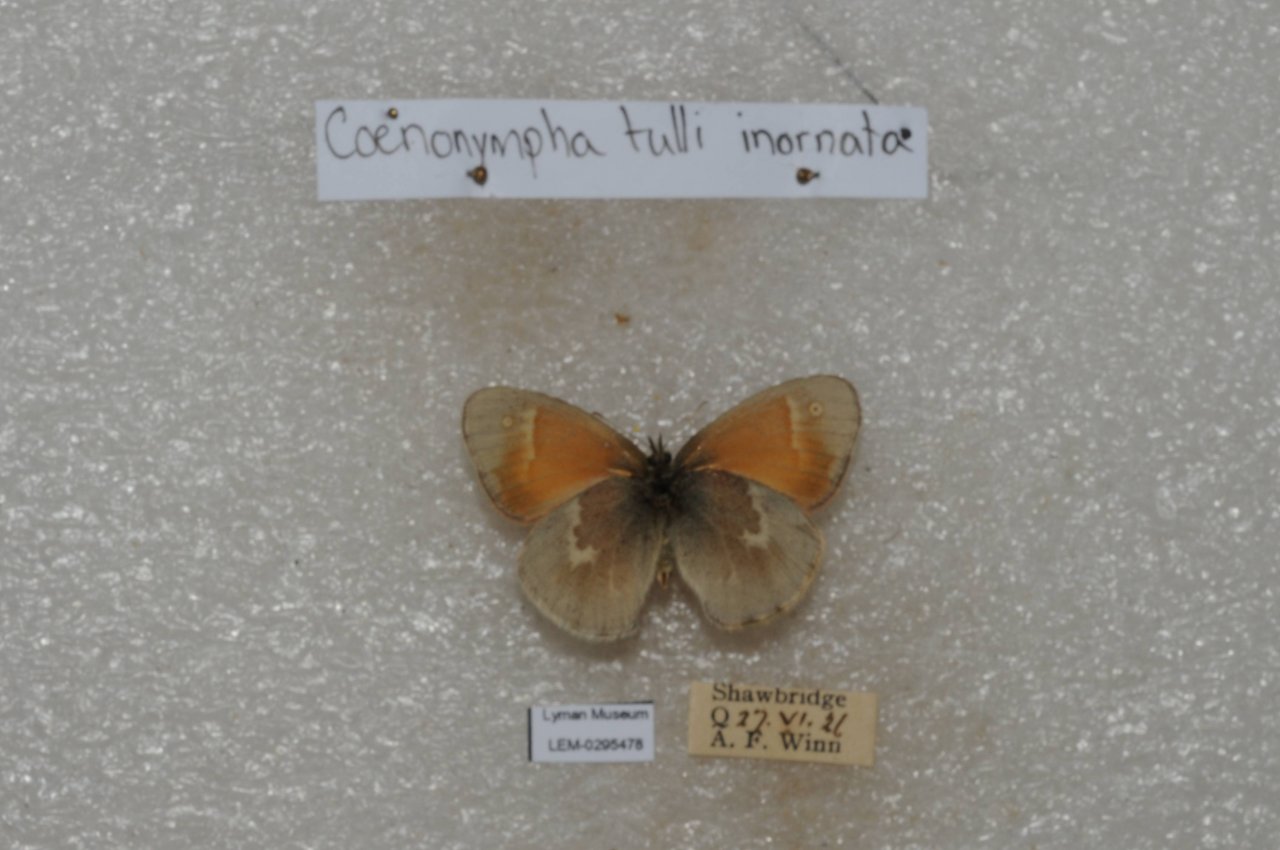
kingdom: Animalia
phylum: Arthropoda
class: Insecta
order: Lepidoptera
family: Nymphalidae
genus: Coenonympha
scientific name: Coenonympha tullia
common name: Large Heath
